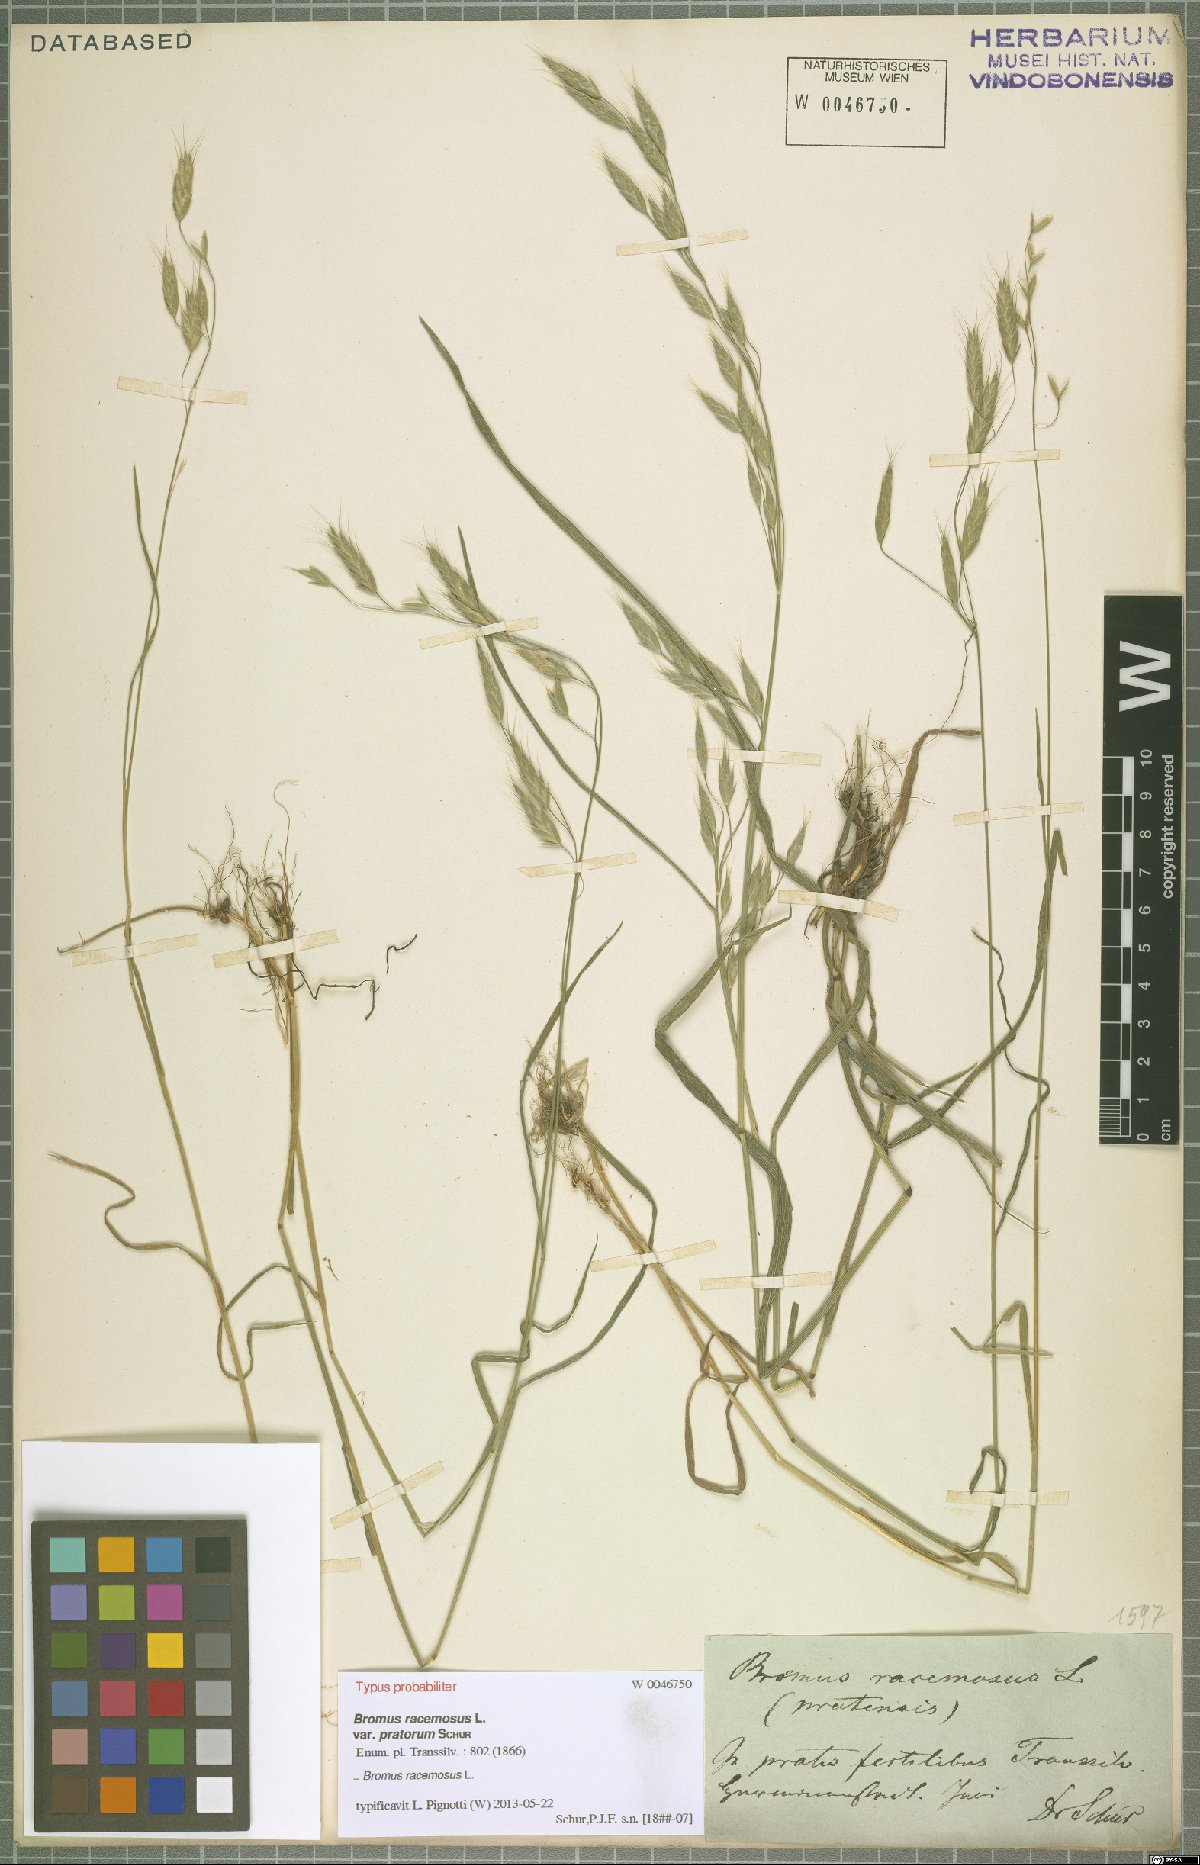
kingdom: Plantae
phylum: Tracheophyta
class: Liliopsida
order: Poales
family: Poaceae
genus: Bromus
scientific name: Bromus racemosus
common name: Bald brome
